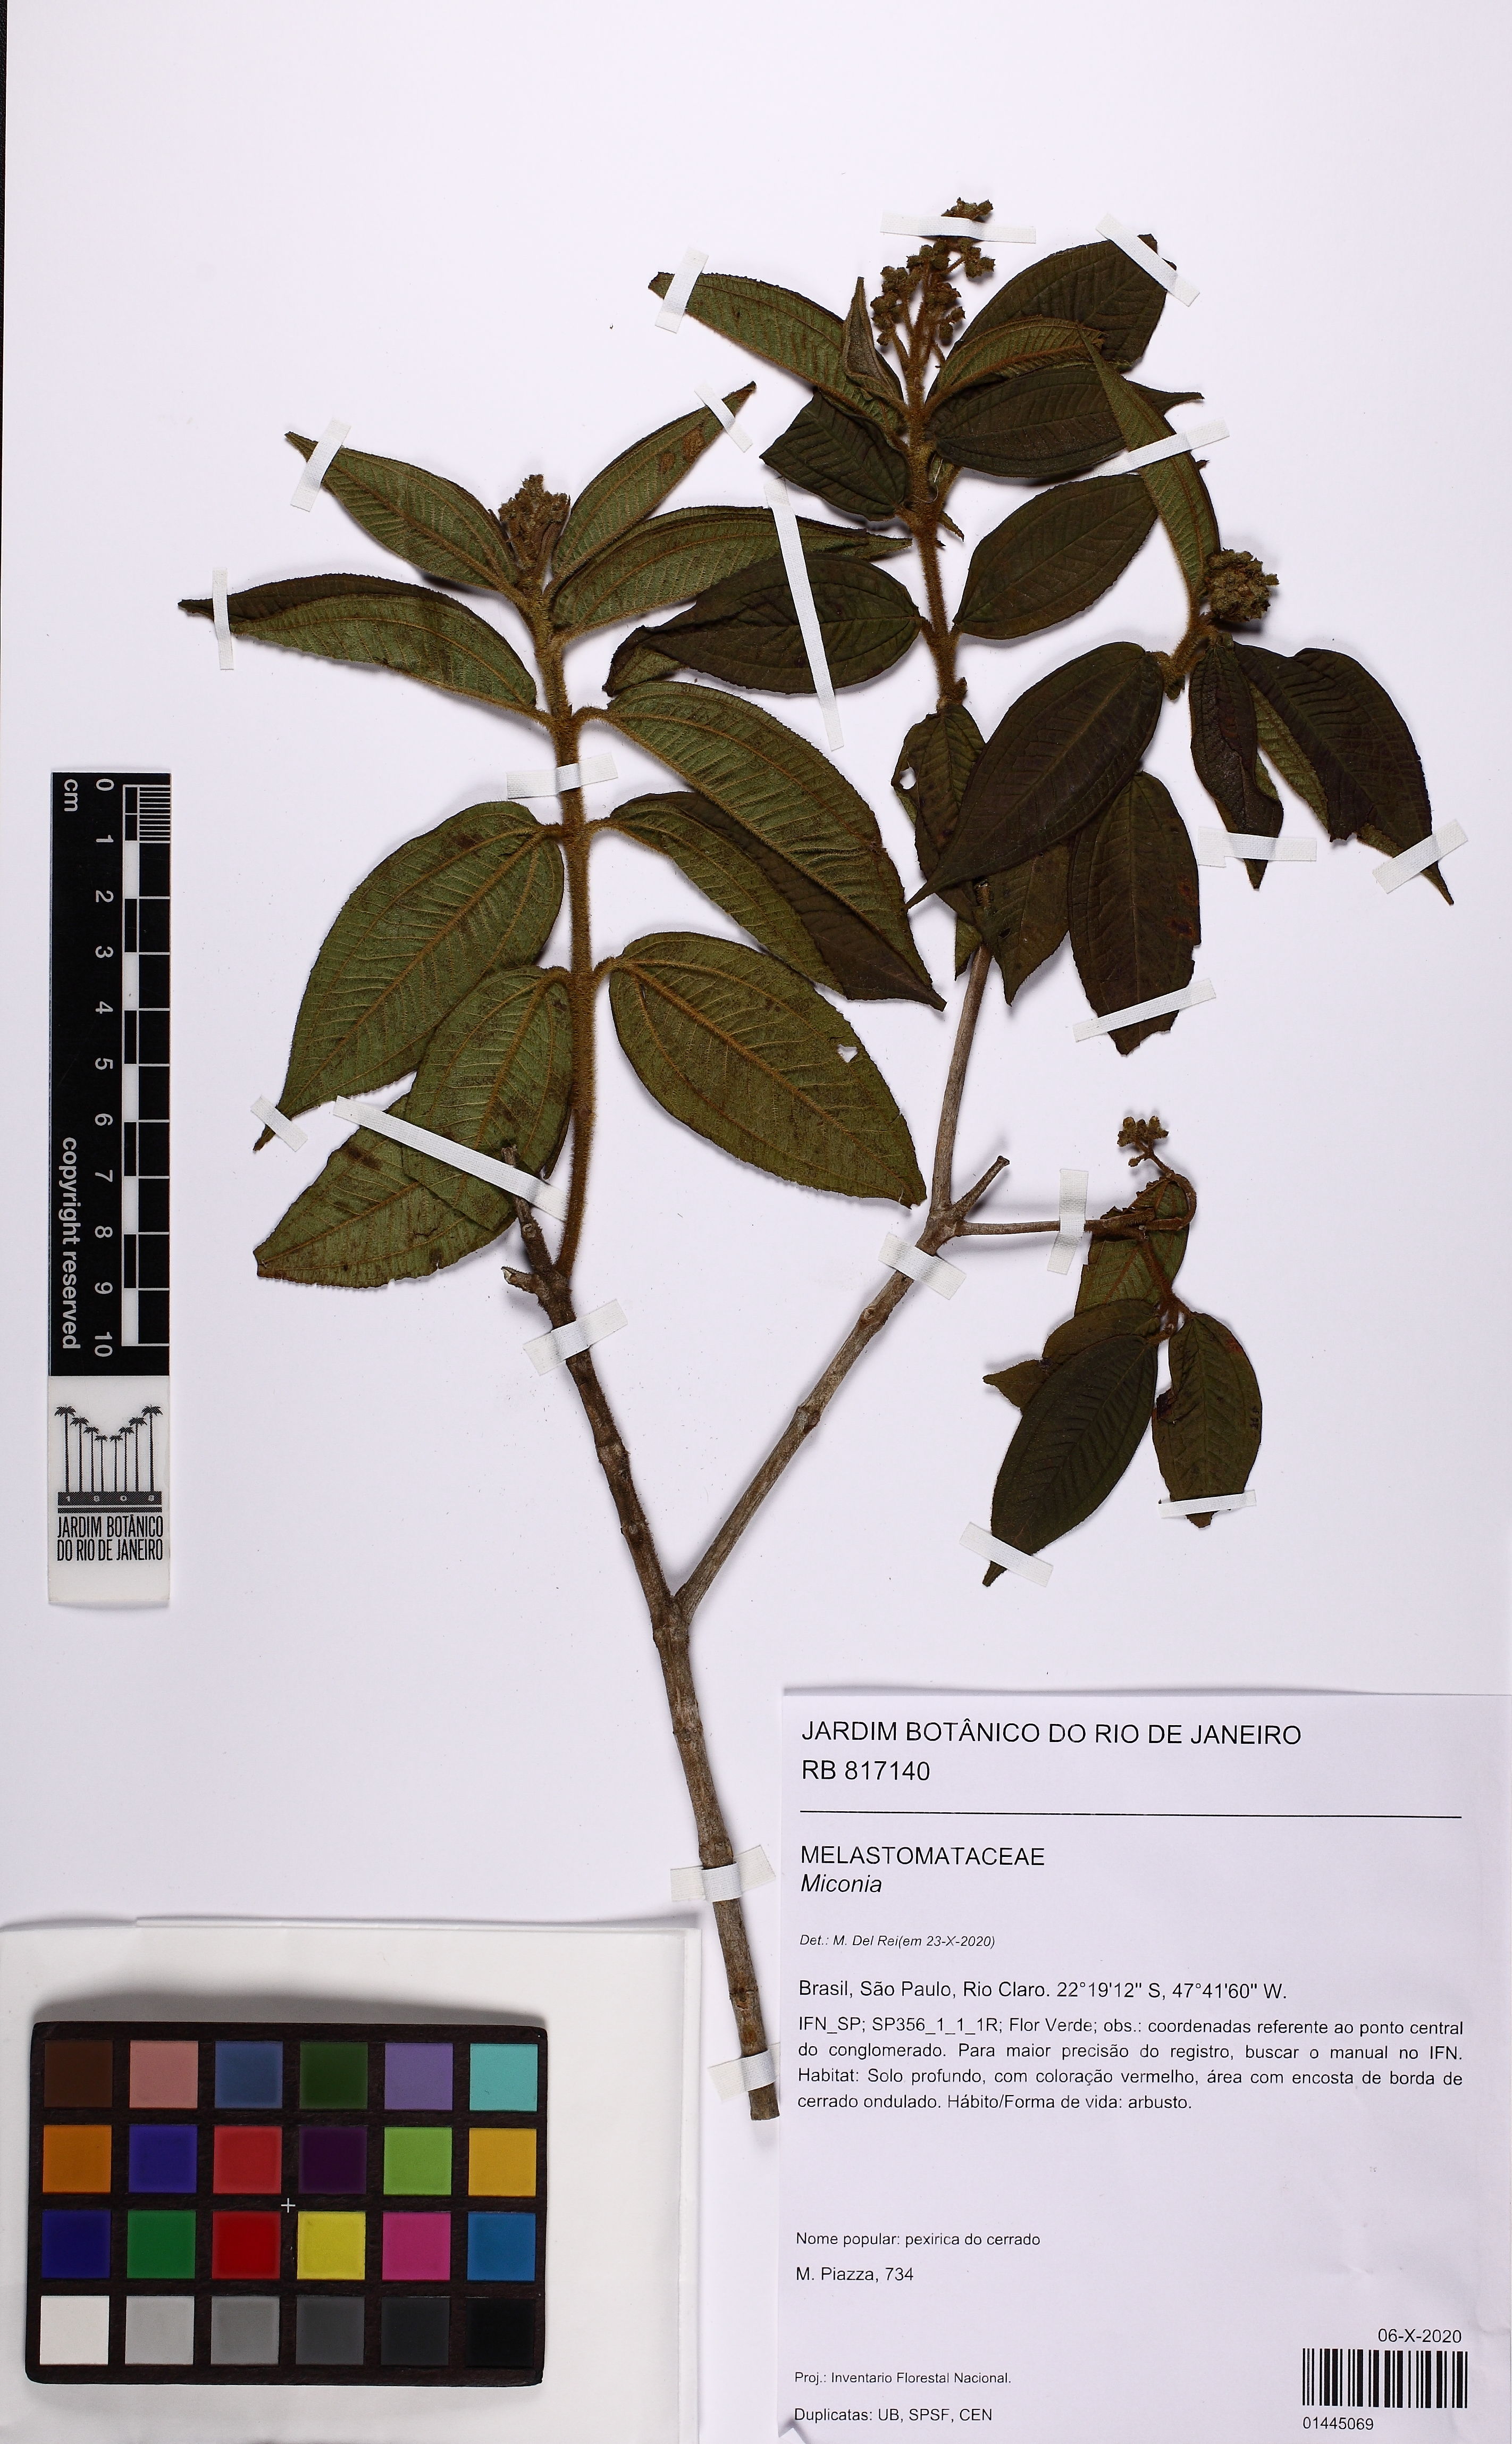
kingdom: Plantae
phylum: Tracheophyta
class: Magnoliopsida
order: Myrtales
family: Melastomataceae
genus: Miconia
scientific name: Miconia
